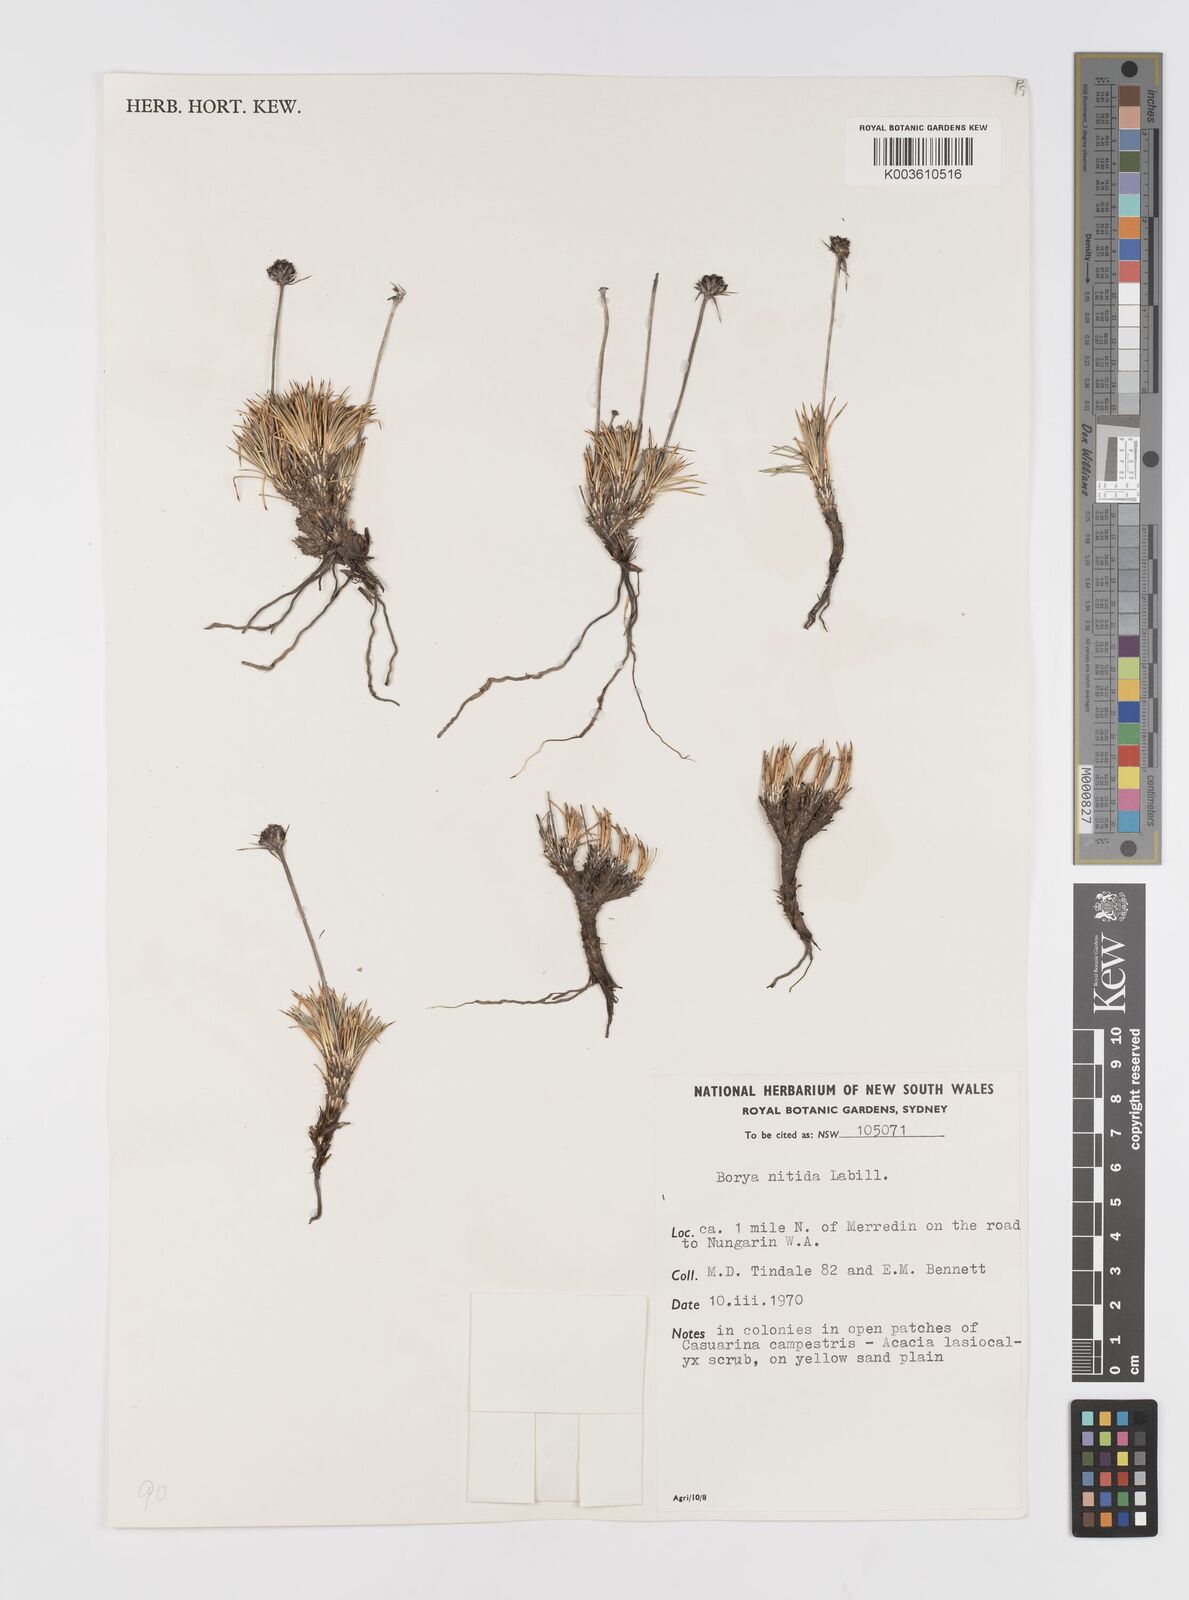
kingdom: Plantae
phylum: Tracheophyta
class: Liliopsida
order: Asparagales
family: Boryaceae
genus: Borya
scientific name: Borya nitida
